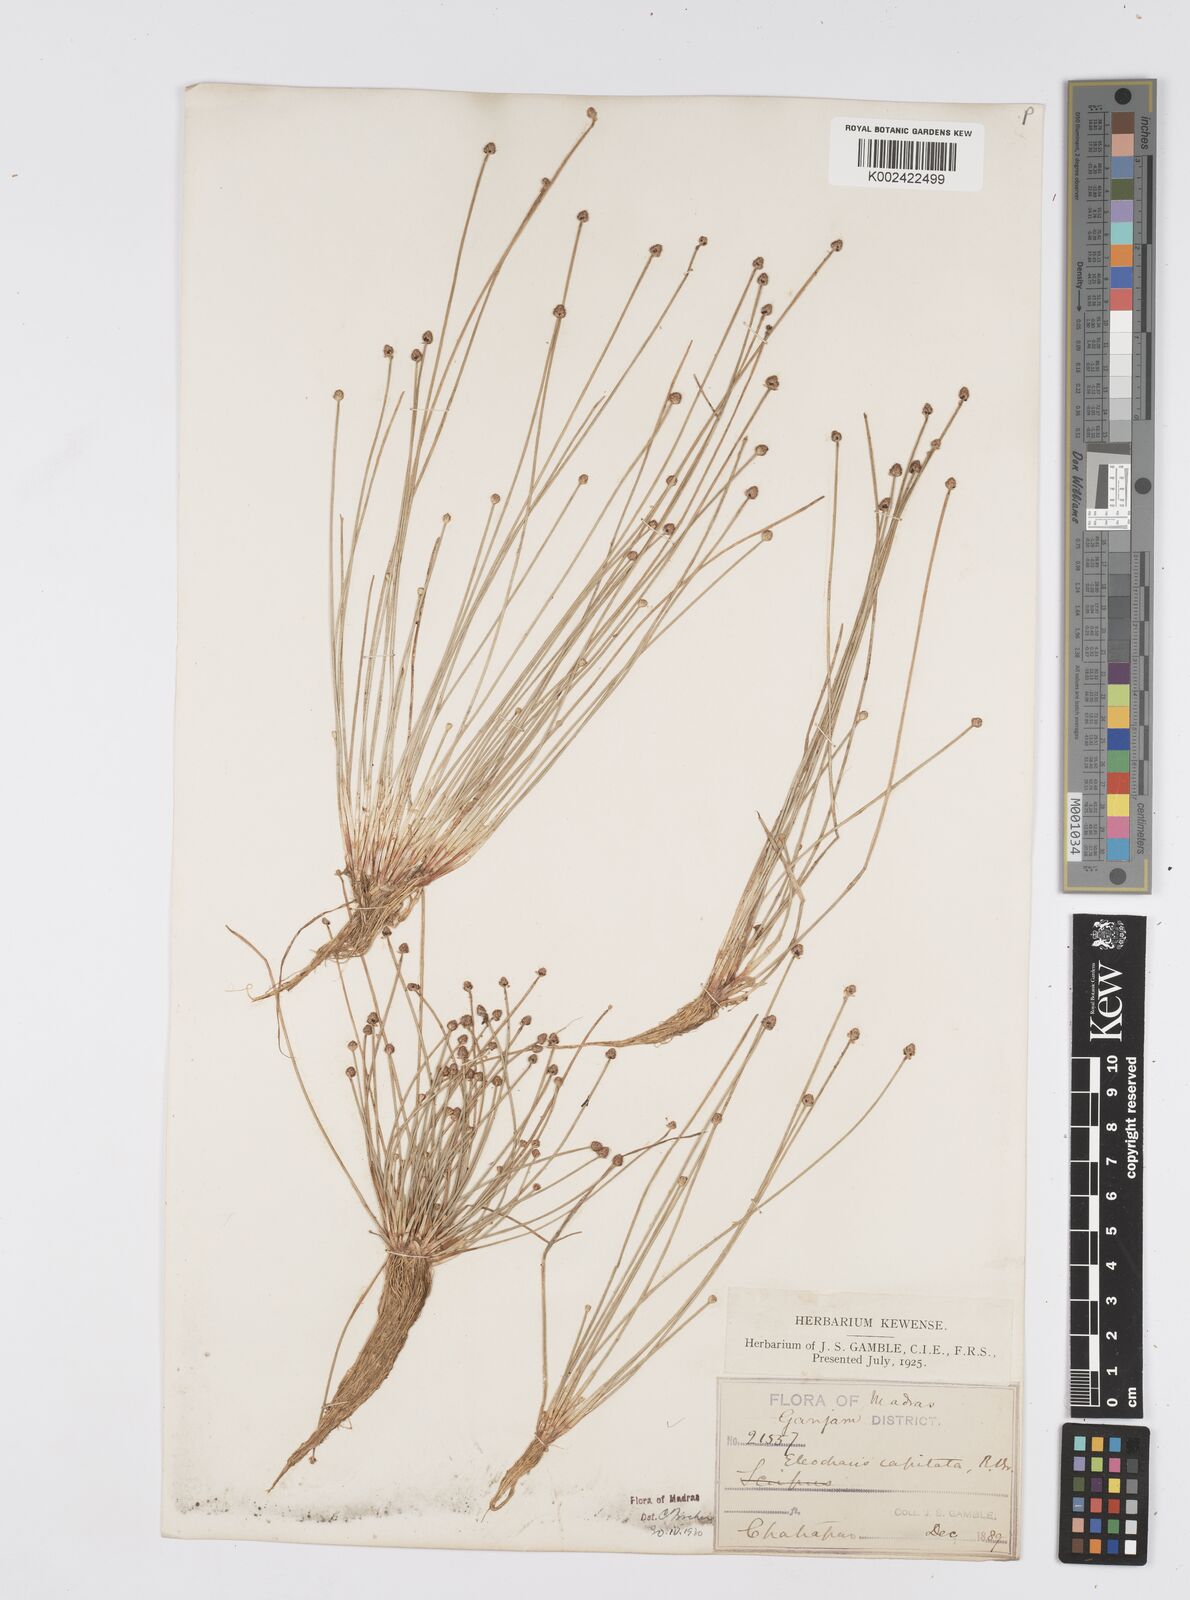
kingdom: Plantae
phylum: Tracheophyta
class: Liliopsida
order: Poales
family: Cyperaceae
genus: Eleocharis
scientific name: Eleocharis geniculata
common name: Canada spikesedge
